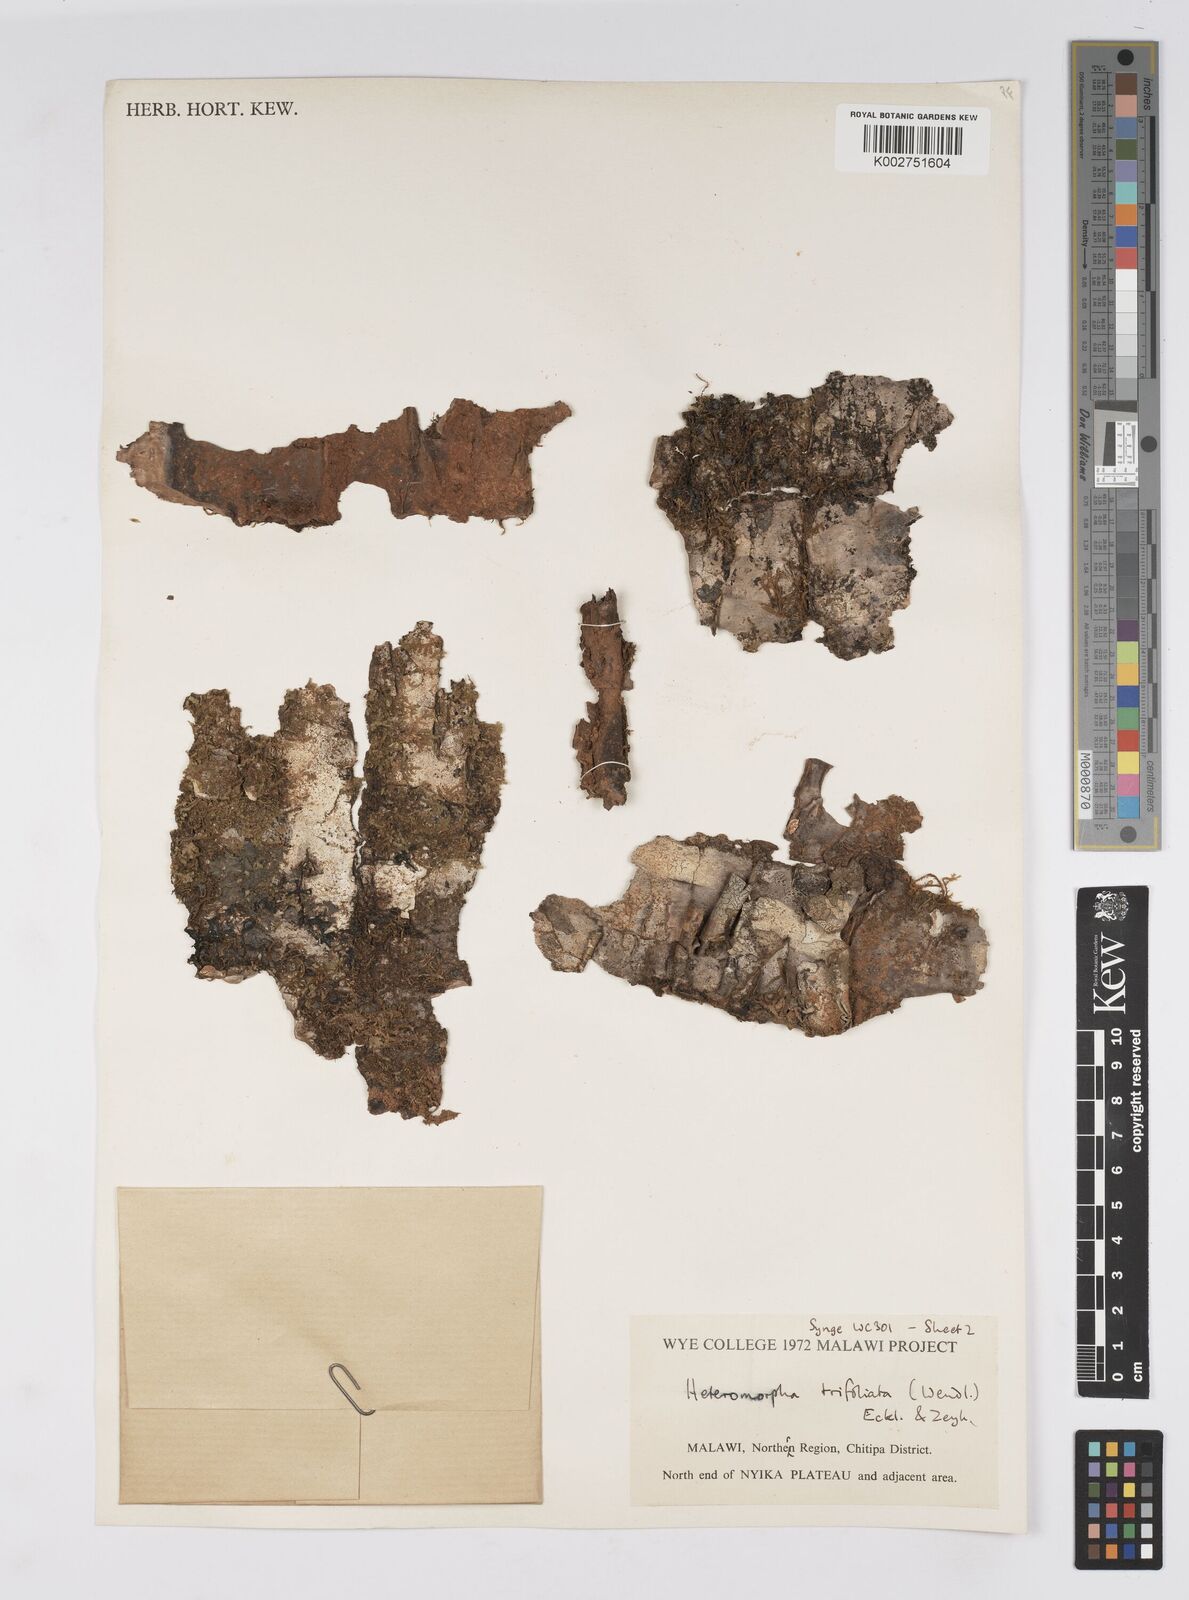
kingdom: Plantae
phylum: Tracheophyta
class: Magnoliopsida
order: Apiales
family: Apiaceae
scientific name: Apiaceae
